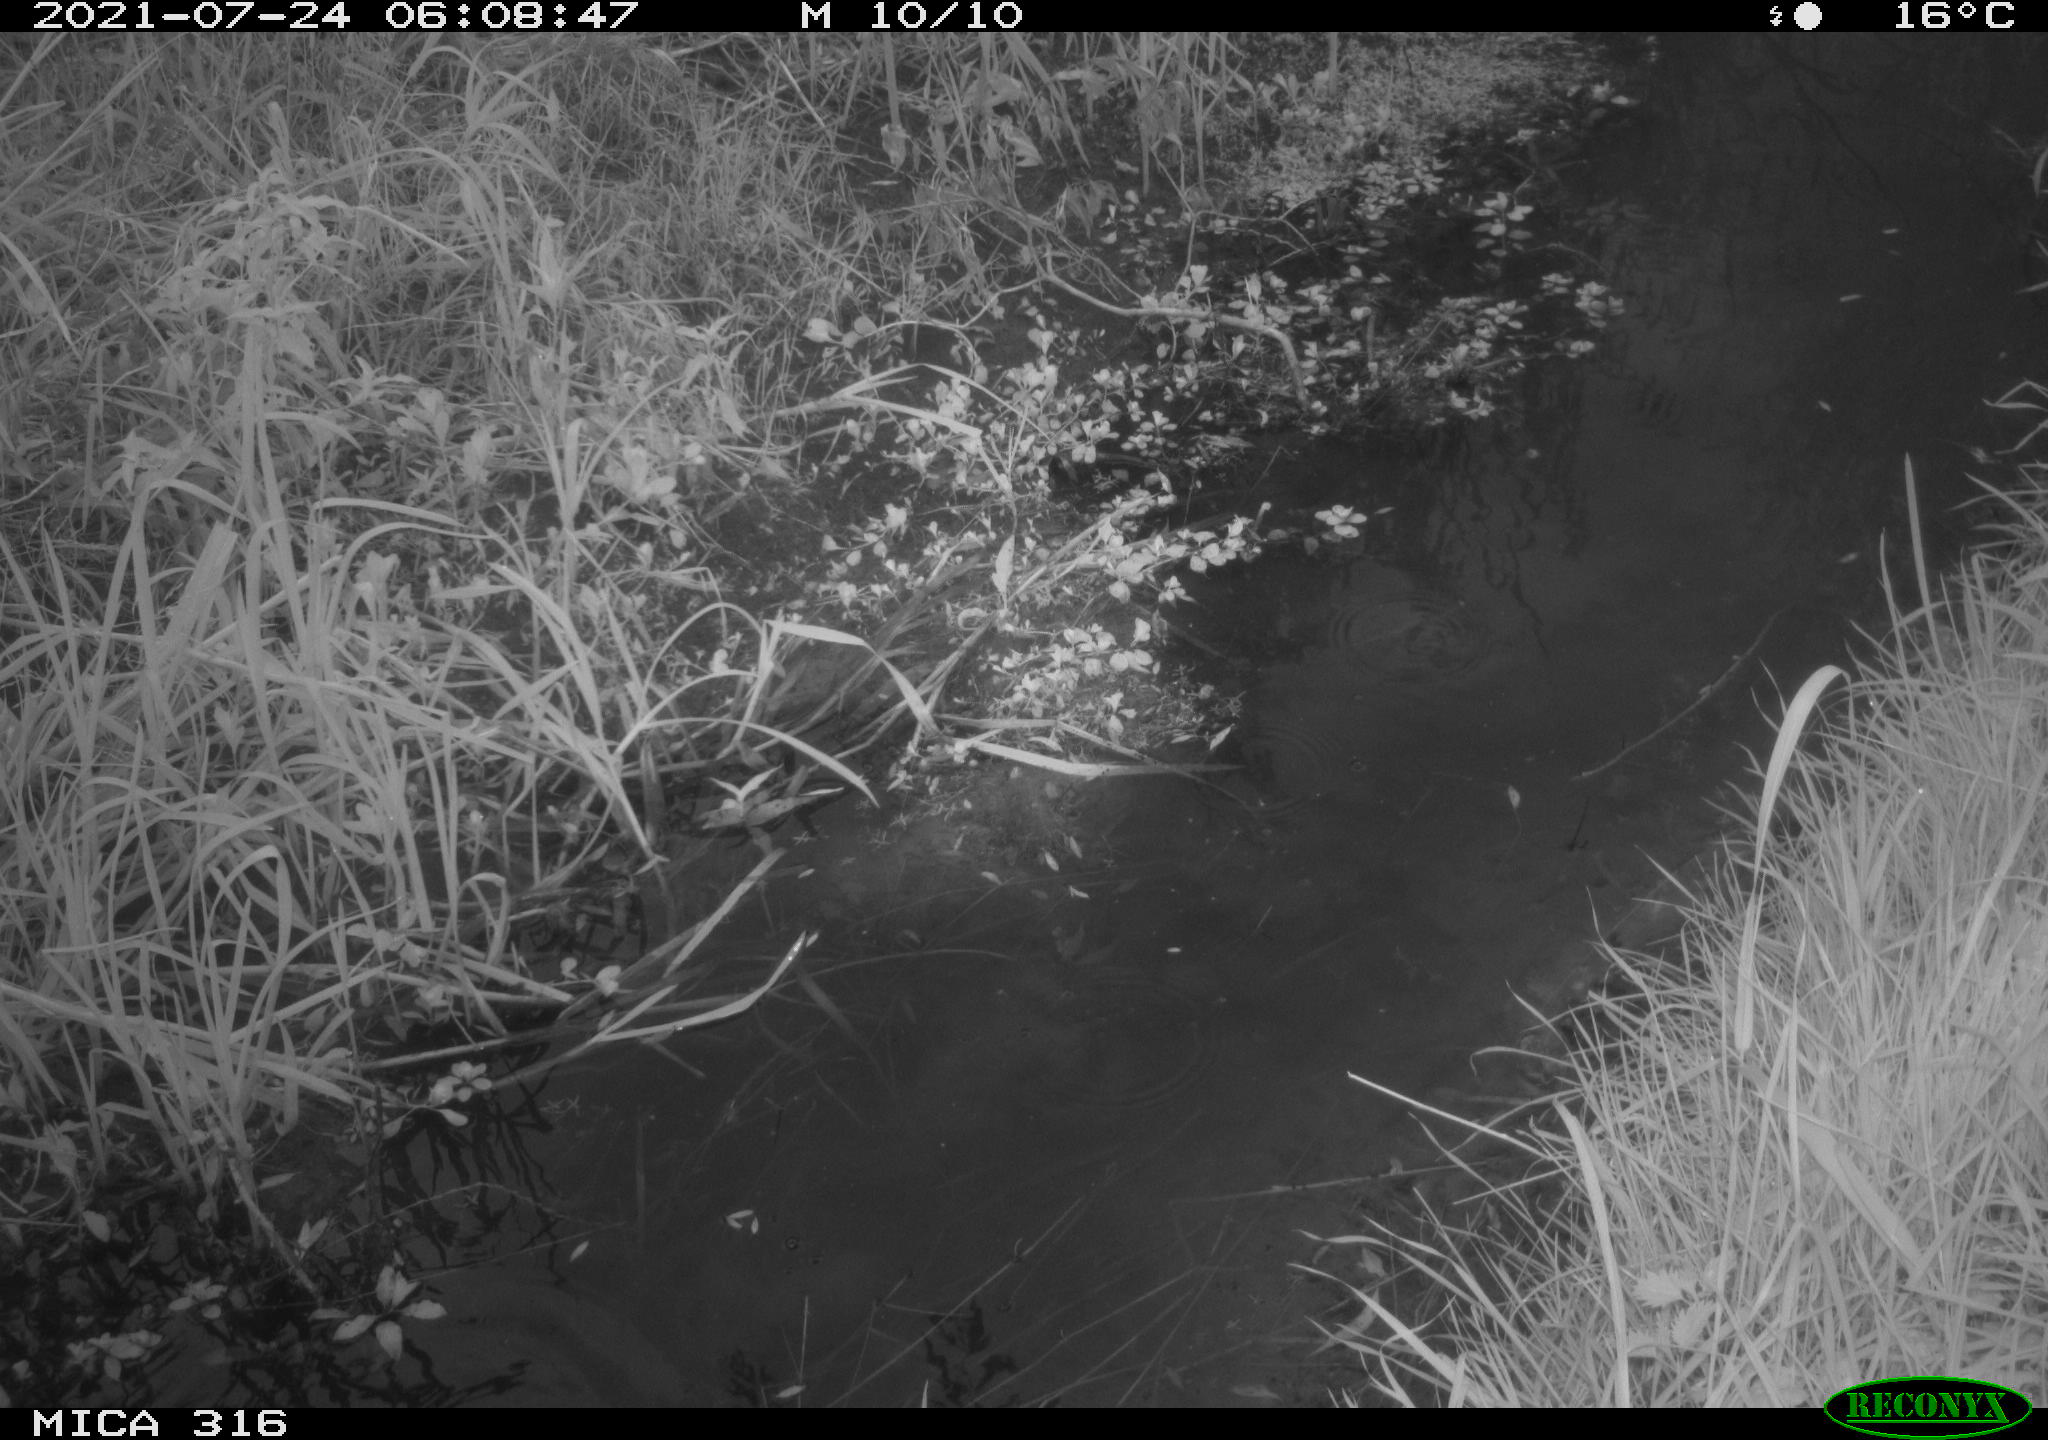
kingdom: Animalia
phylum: Chordata
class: Aves
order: Pelecaniformes
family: Ardeidae
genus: Ardea
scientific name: Ardea
